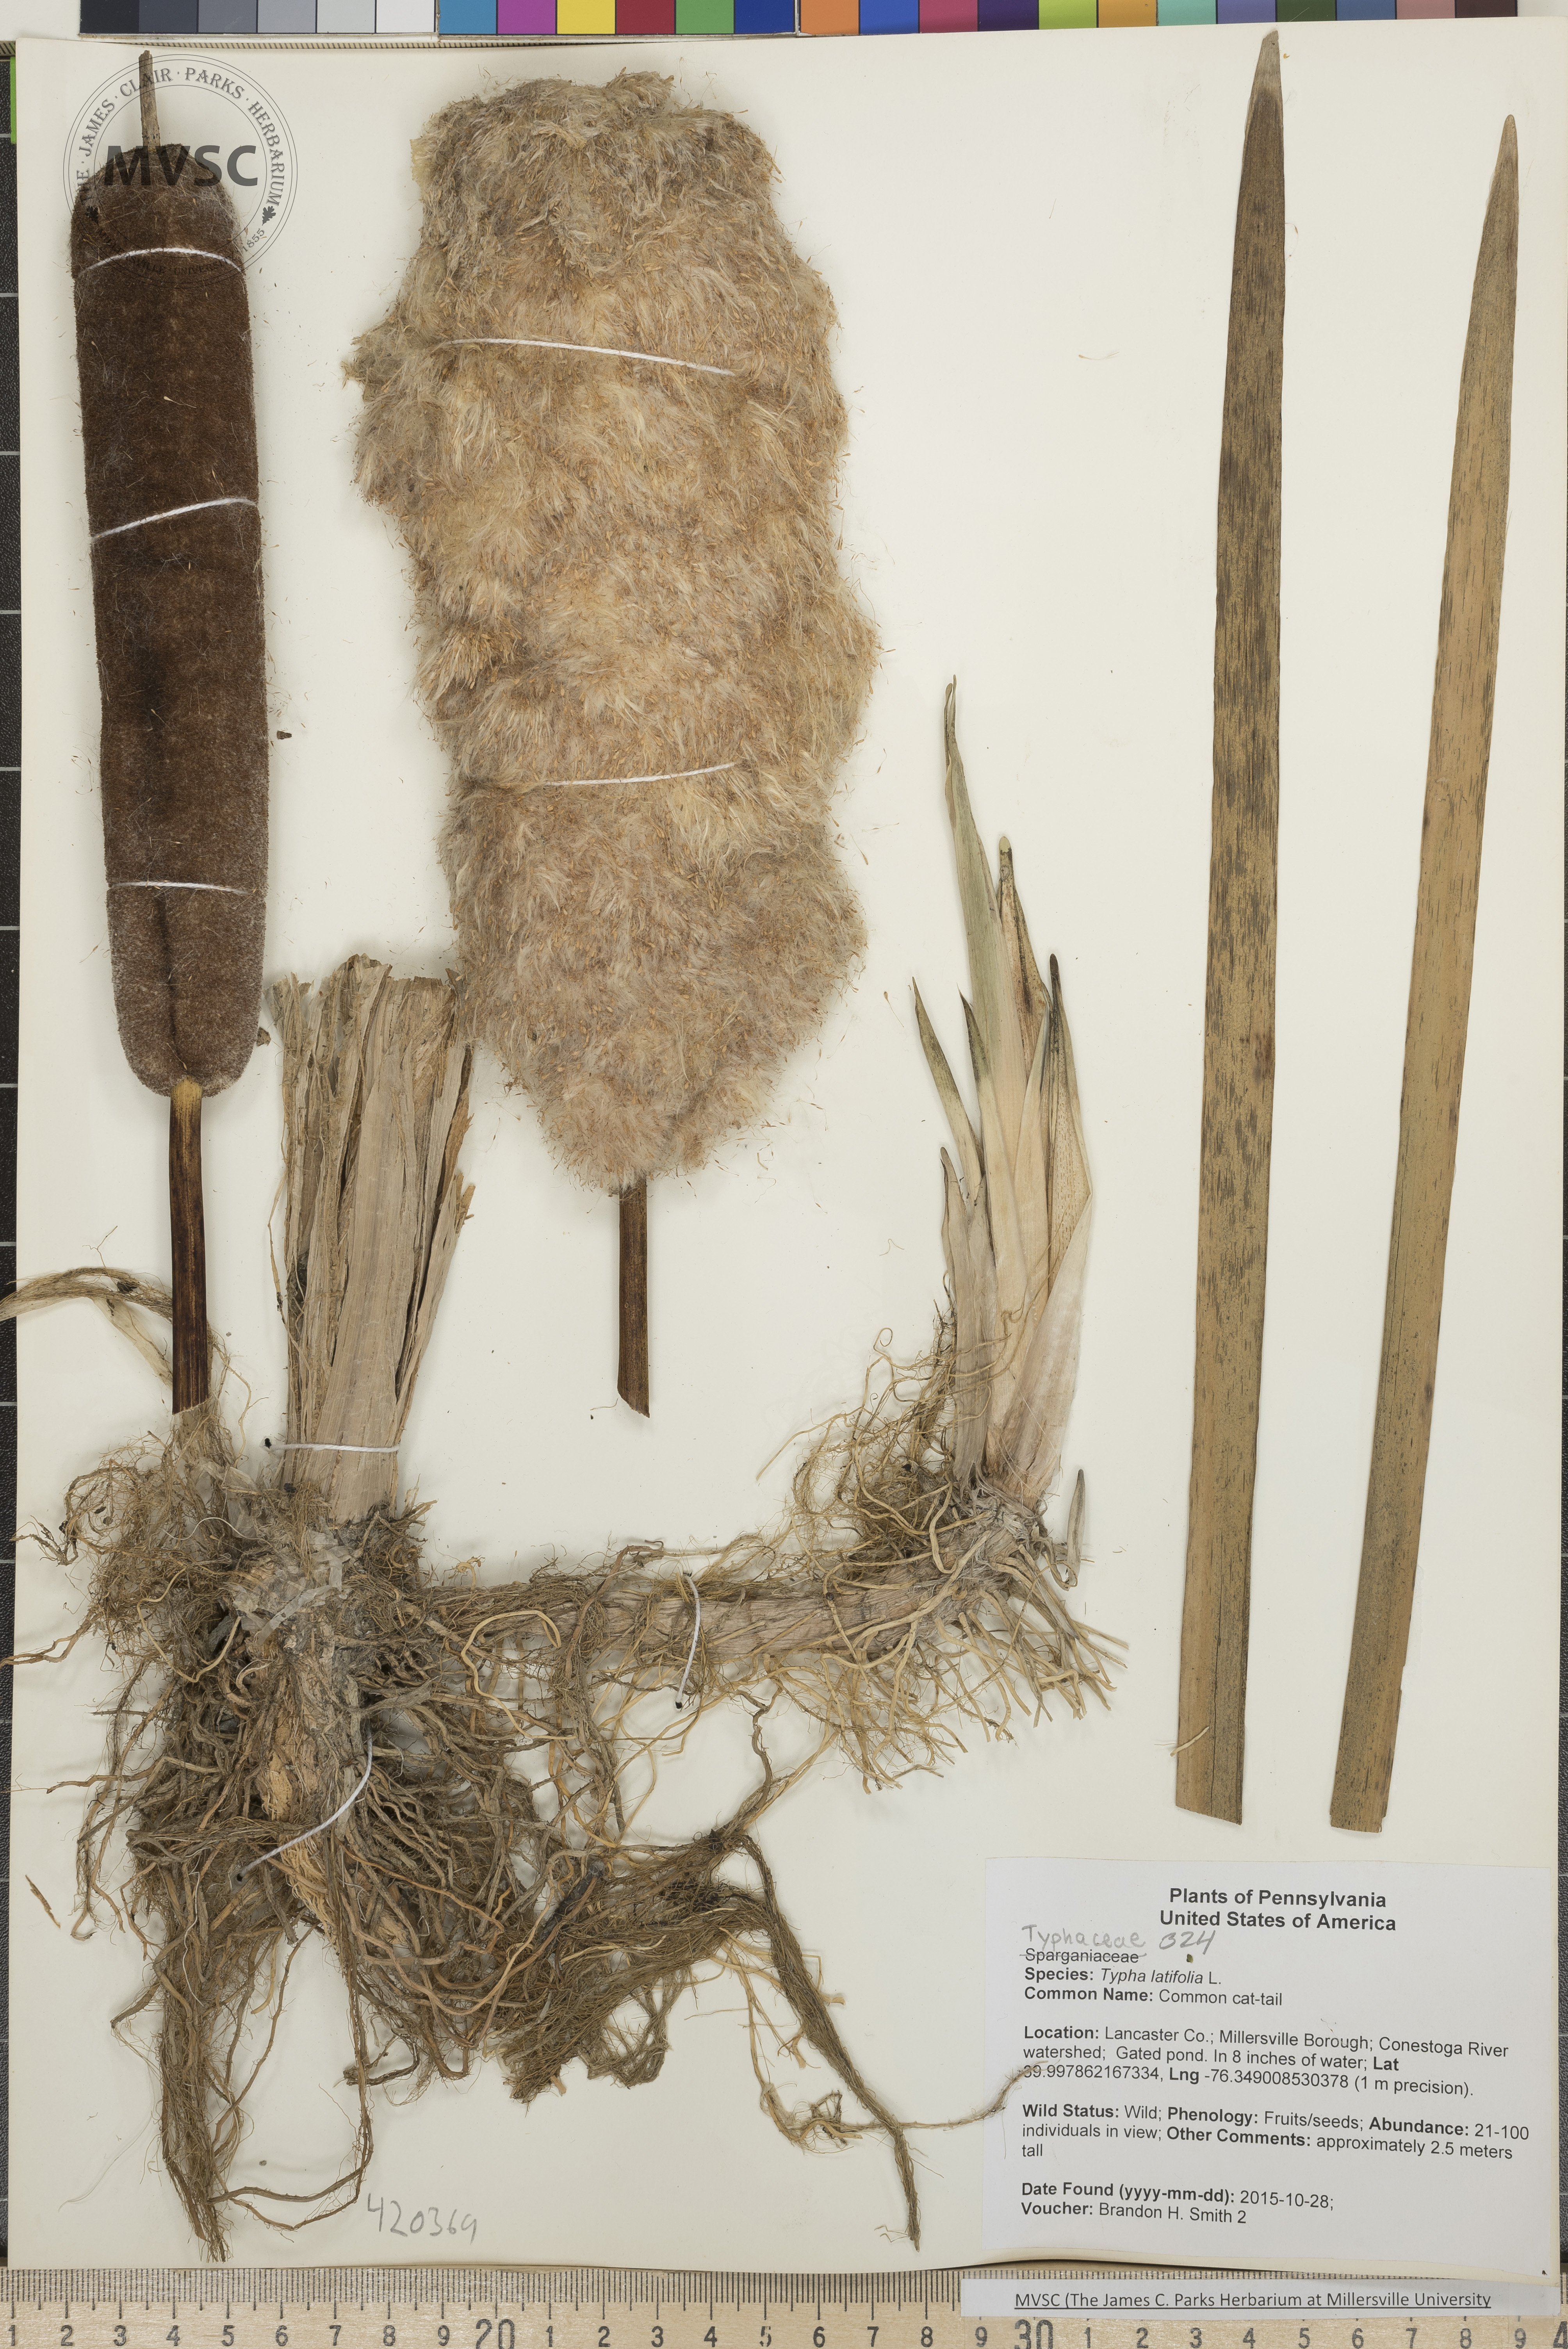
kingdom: Plantae
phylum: Tracheophyta
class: Liliopsida
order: Poales
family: Typhaceae
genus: Typha
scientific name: Typha latifolia
